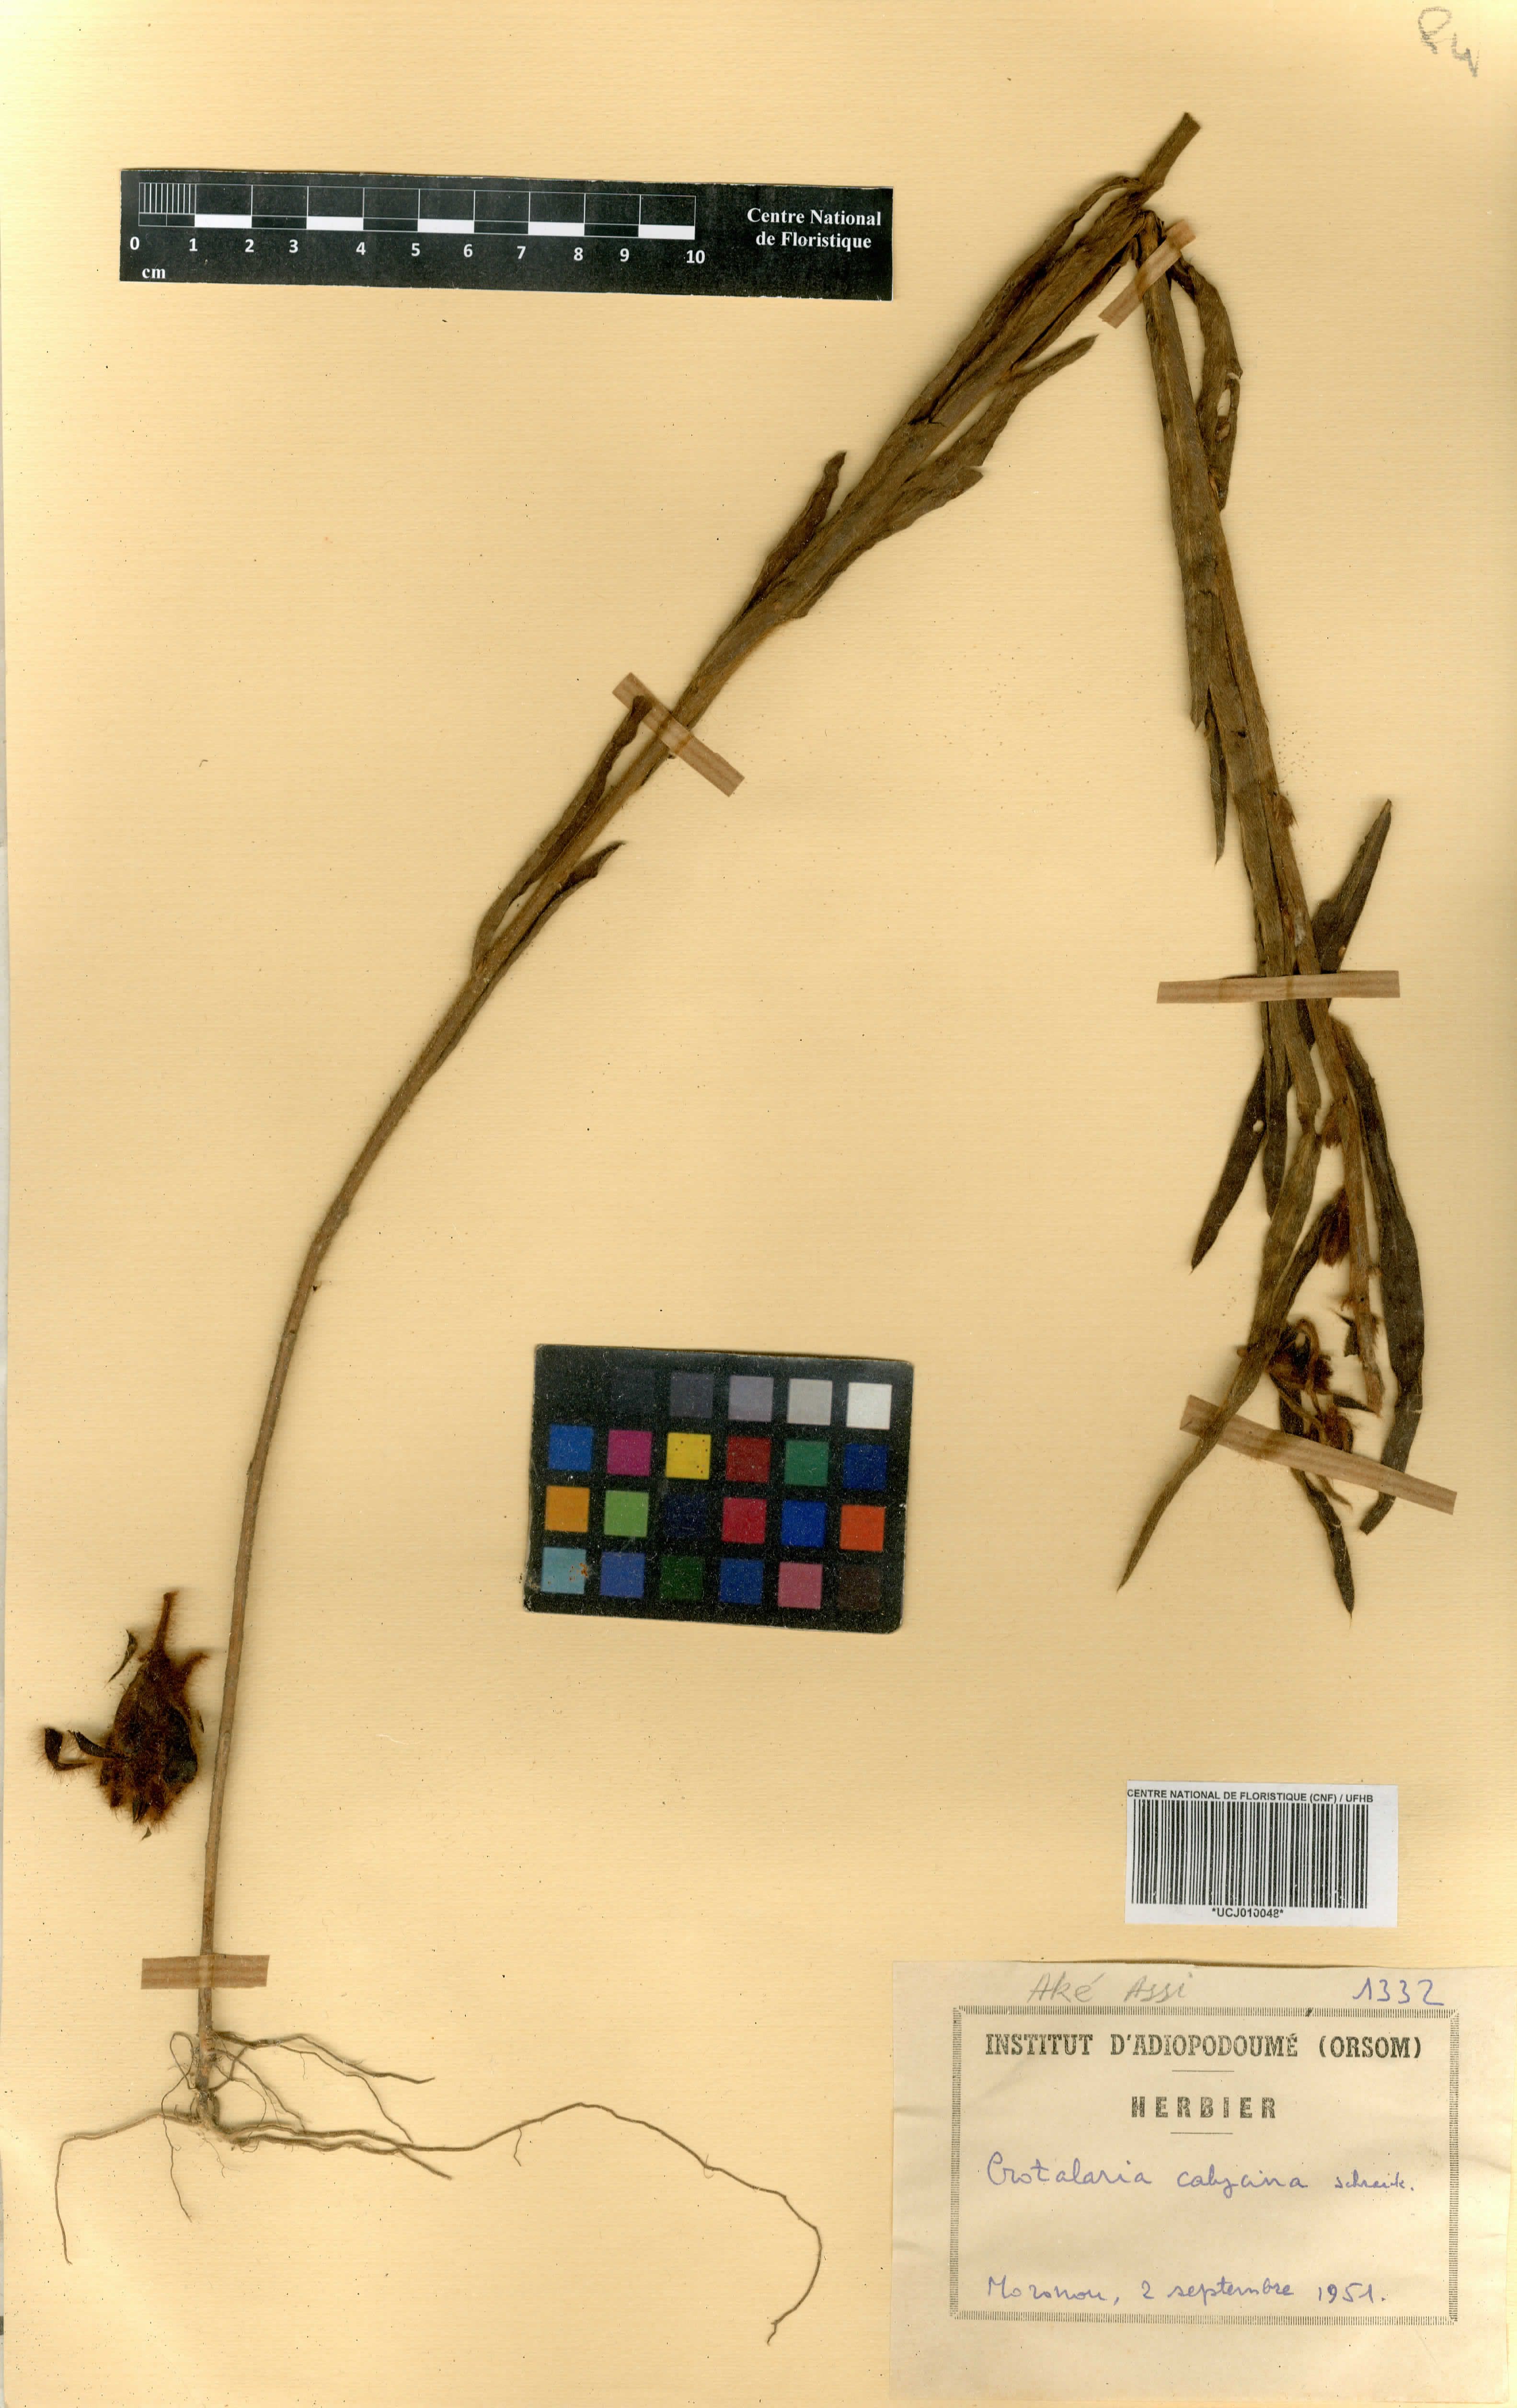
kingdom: Plantae
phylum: Tracheophyta
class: Magnoliopsida
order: Fabales
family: Fabaceae
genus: Crotalaria
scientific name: Crotalaria calycina
